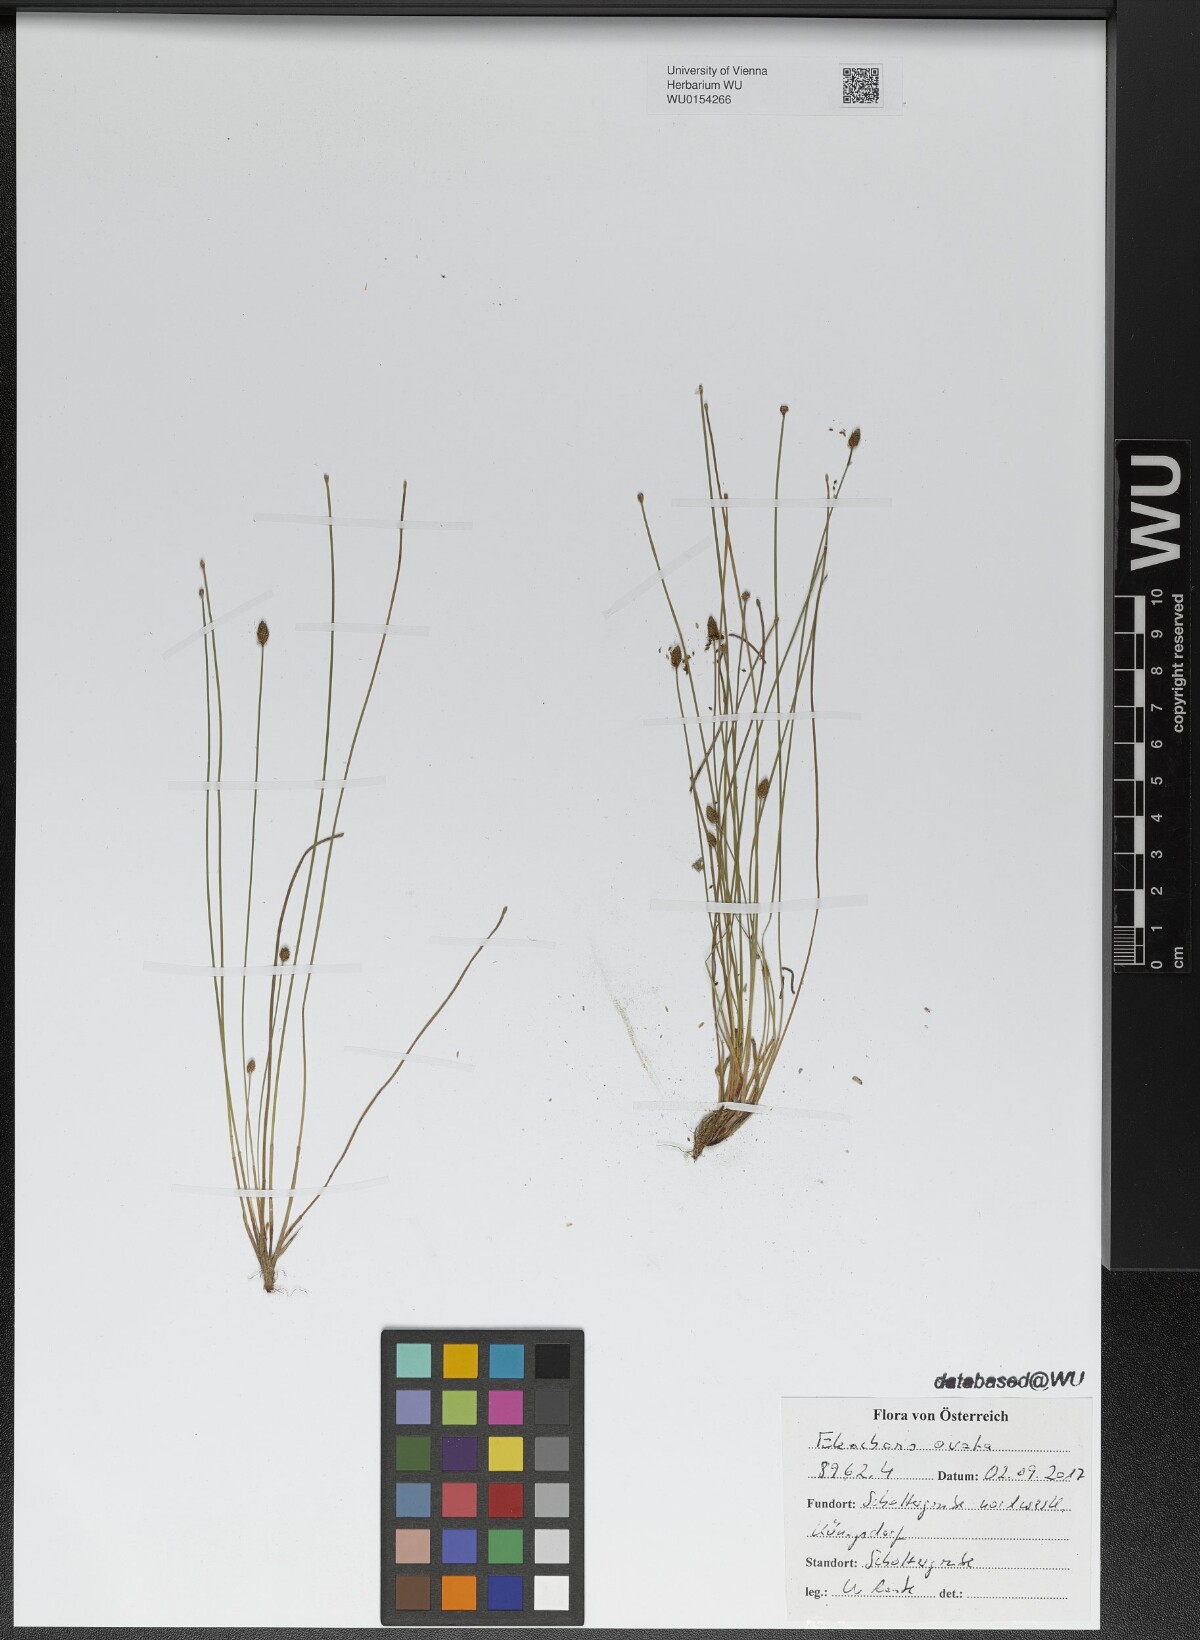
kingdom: Plantae
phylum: Tracheophyta
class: Liliopsida
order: Poales
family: Cyperaceae
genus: Eleocharis
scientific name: Eleocharis ovata
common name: Oval spike-rush
